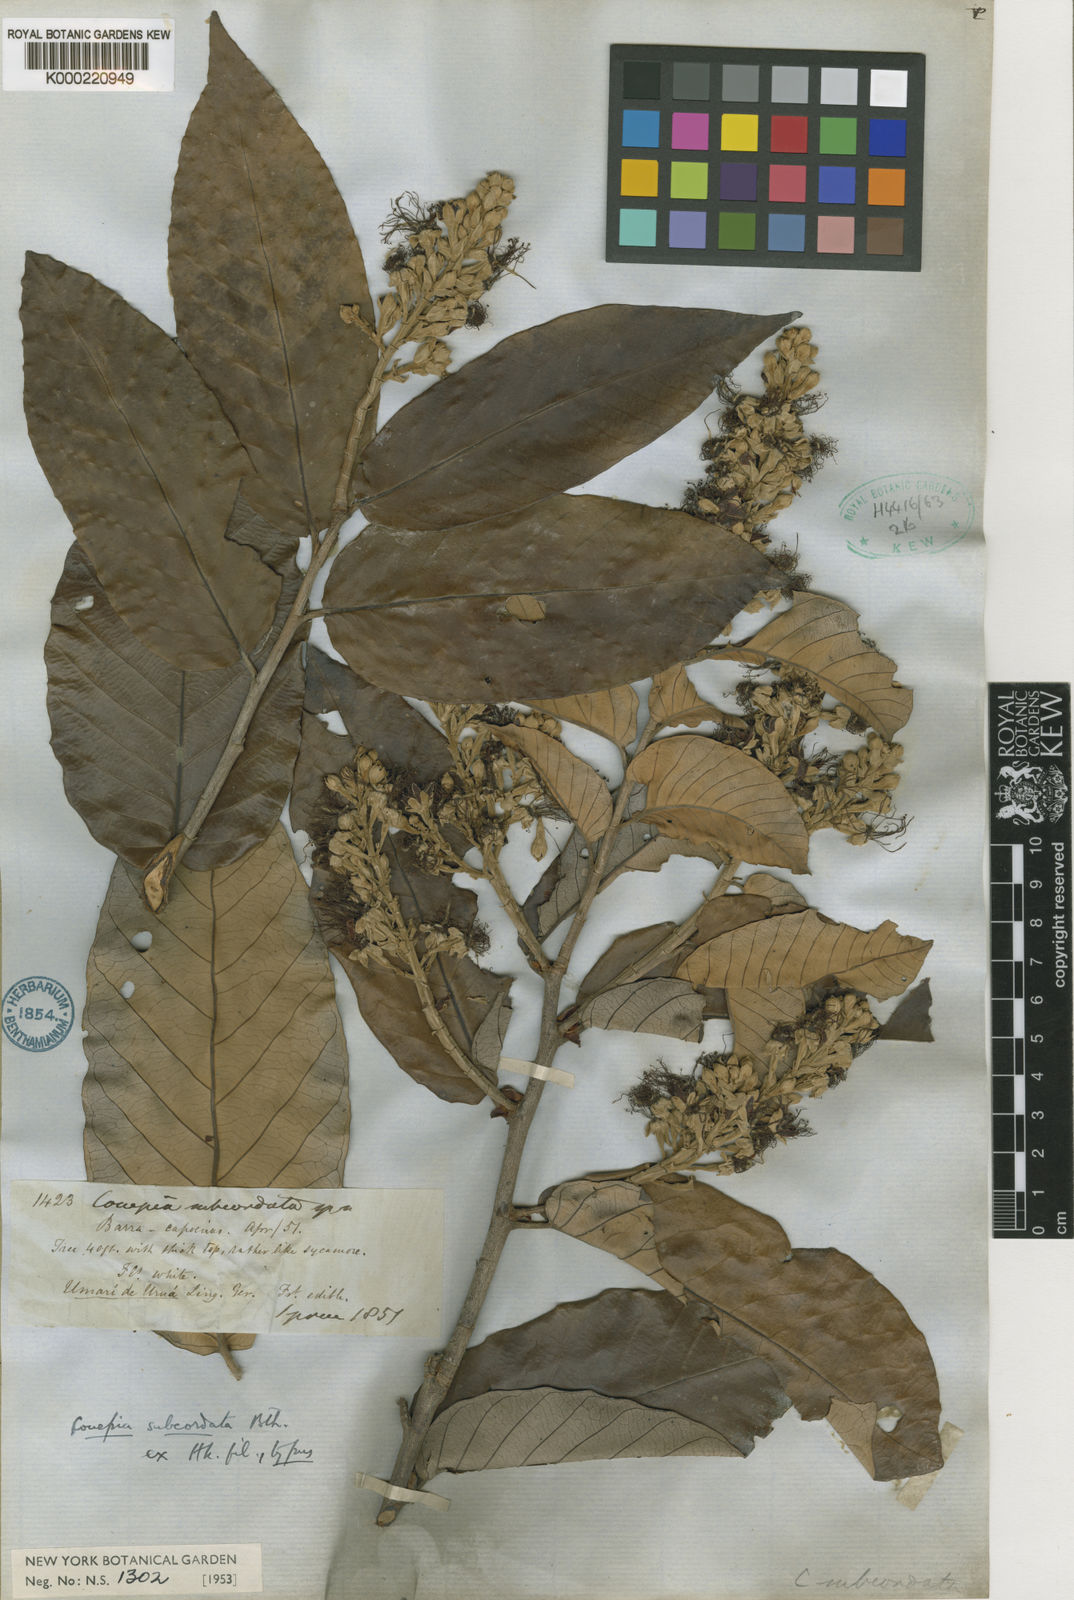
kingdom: Plantae
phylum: Tracheophyta
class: Magnoliopsida
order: Malpighiales
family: Chrysobalanaceae
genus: Couepia
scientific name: Couepia subcordata
